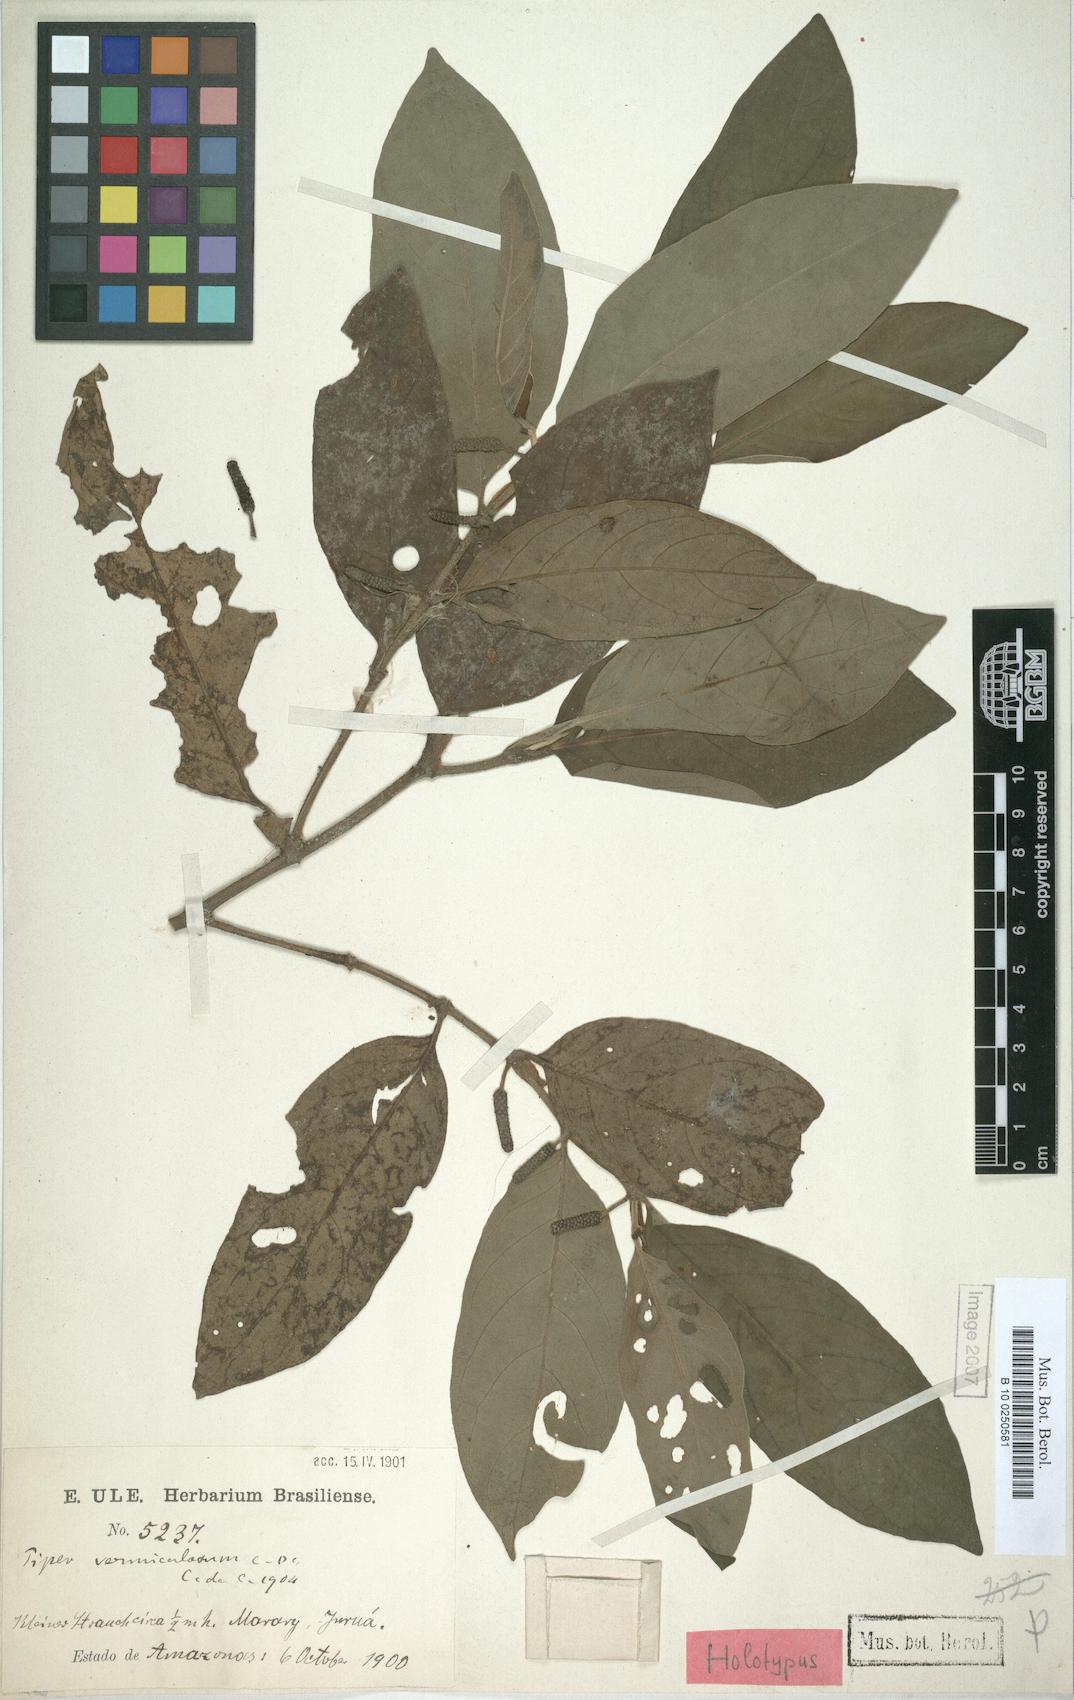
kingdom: Plantae
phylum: Tracheophyta
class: Magnoliopsida
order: Piperales
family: Piperaceae
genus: Piper
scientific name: Piper vermiculatum
